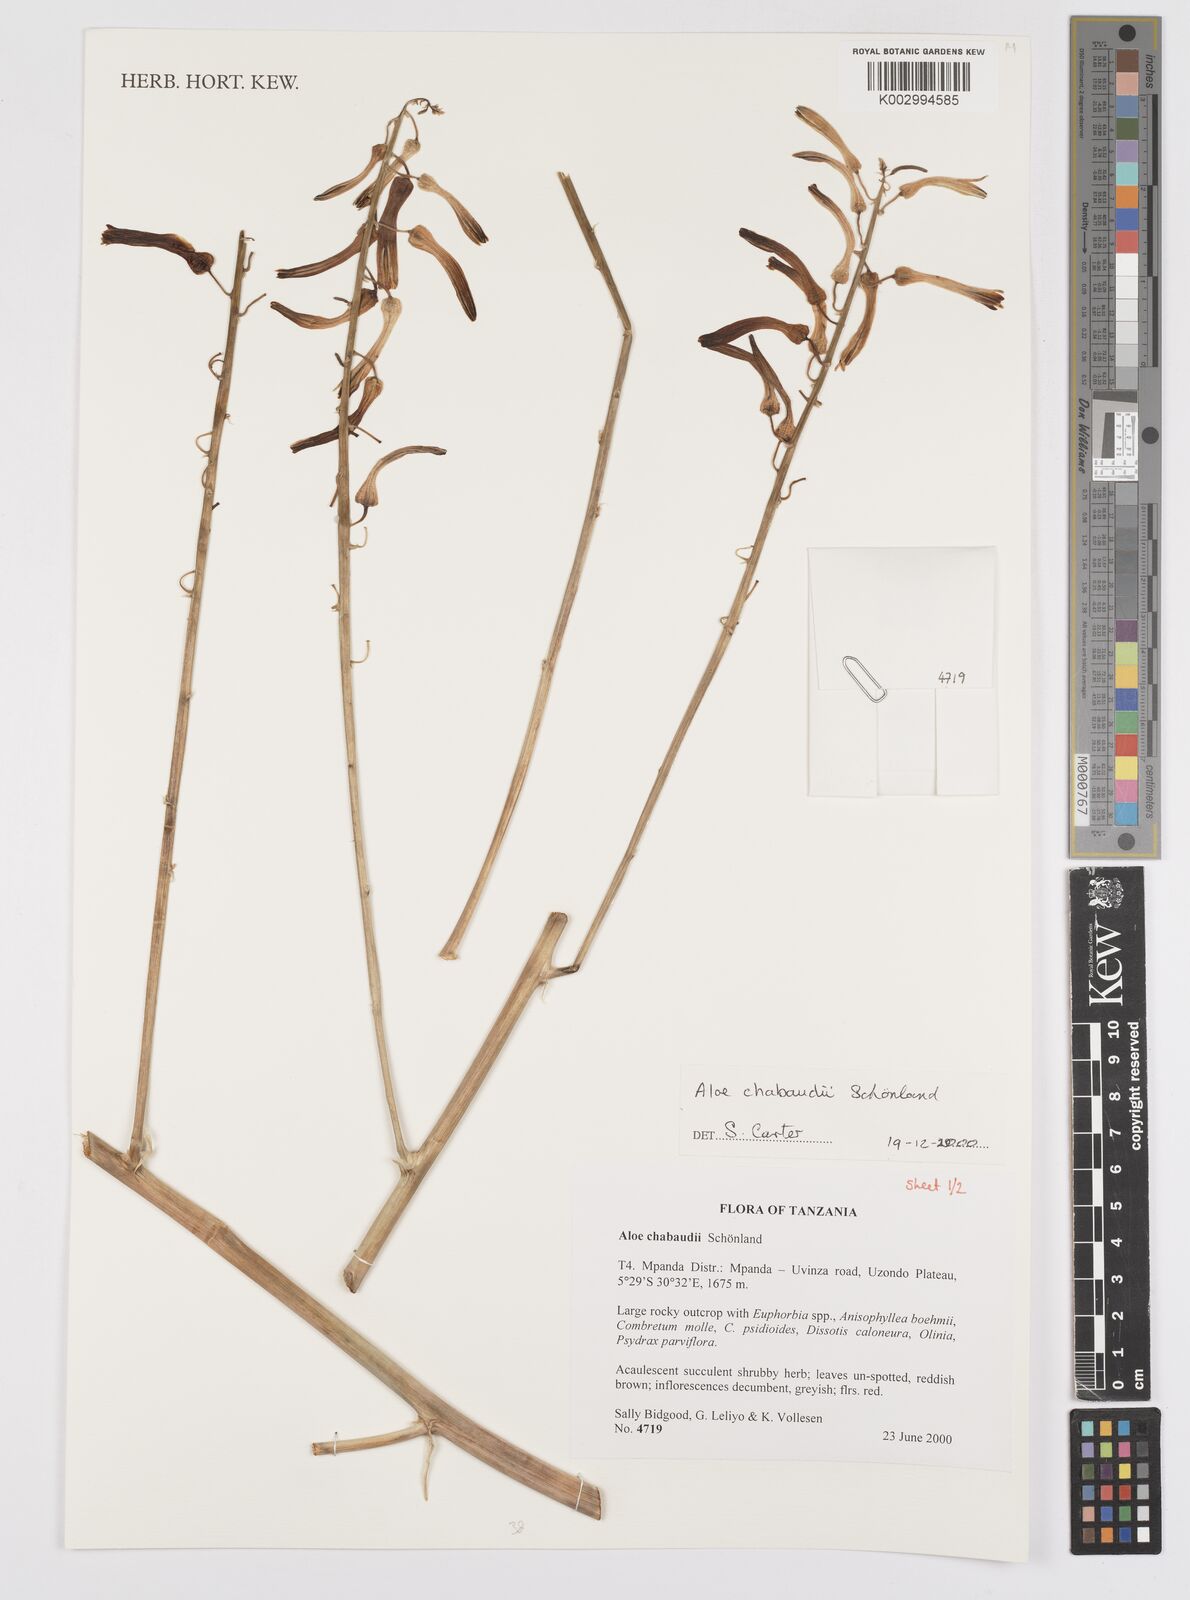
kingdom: Plantae
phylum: Tracheophyta
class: Liliopsida
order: Asparagales
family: Asphodelaceae
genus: Aloe
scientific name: Aloe chabaudii
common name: Chabaud's aloe
